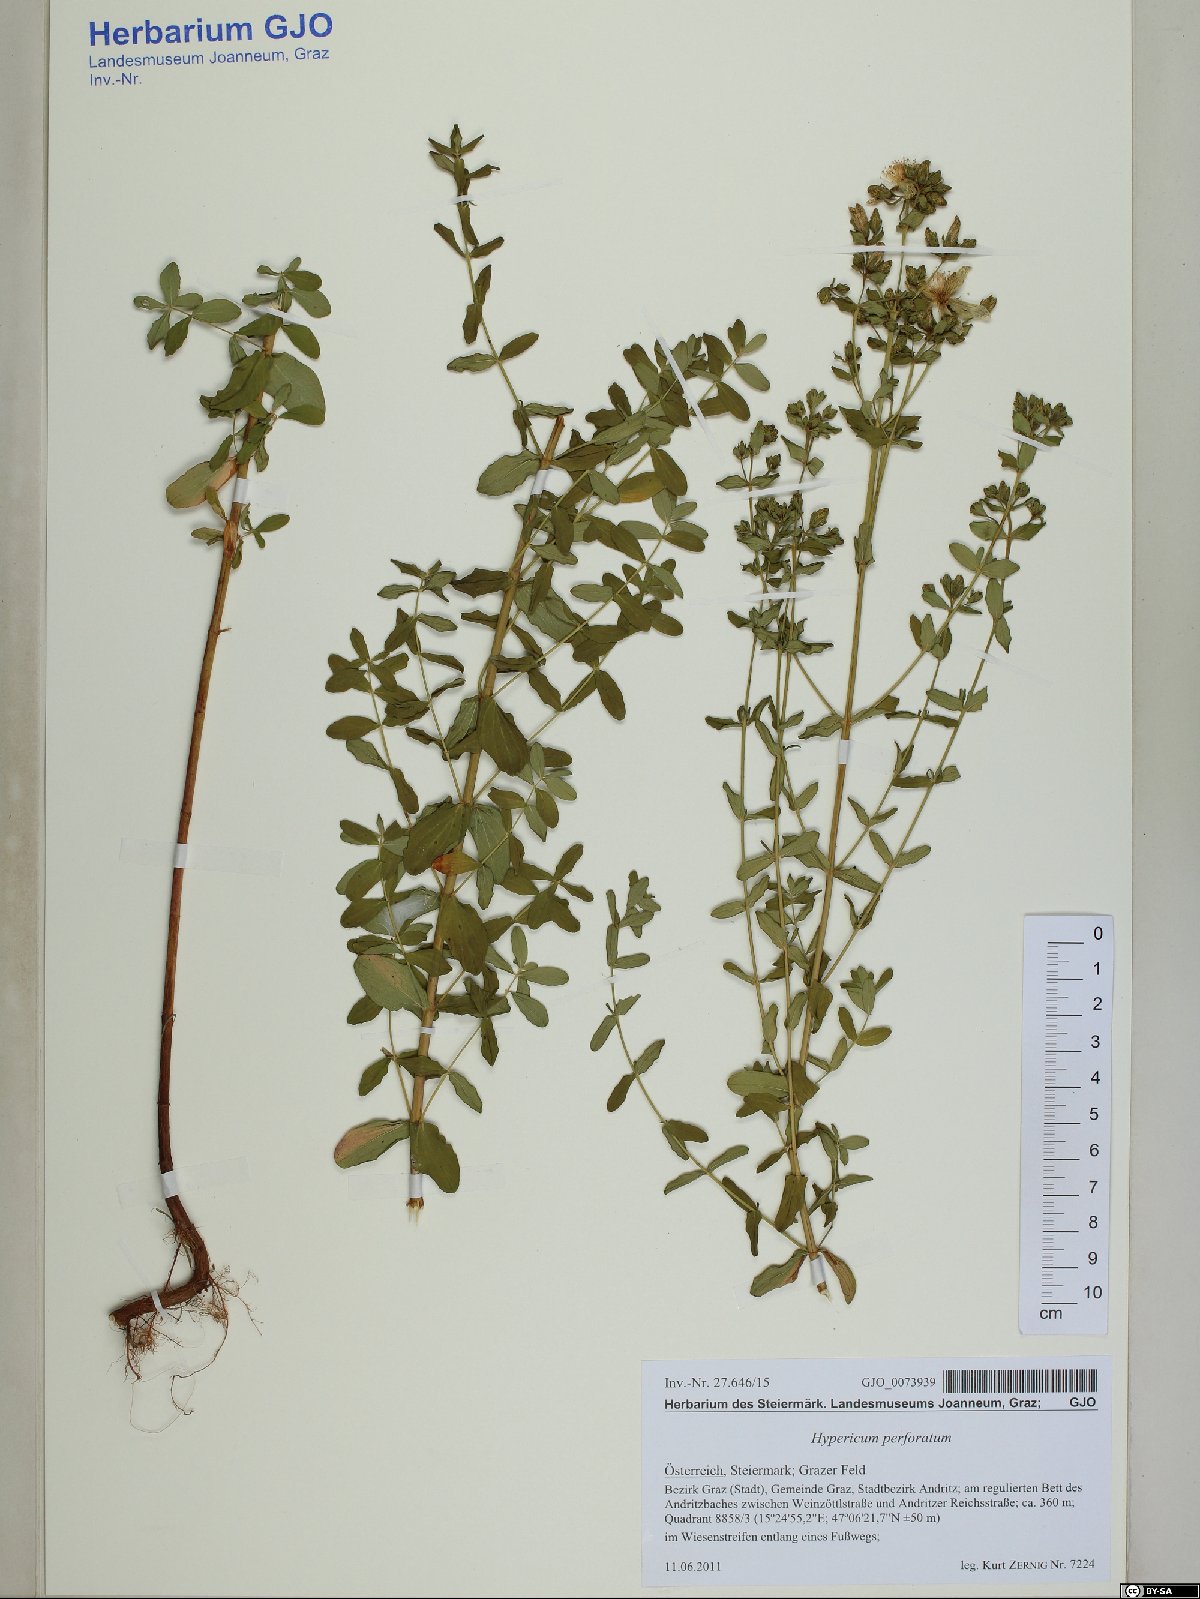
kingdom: Plantae
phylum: Tracheophyta
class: Magnoliopsida
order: Malpighiales
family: Hypericaceae
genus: Hypericum
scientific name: Hypericum perforatum
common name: Common st. johnswort
